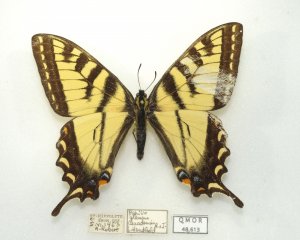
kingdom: Animalia
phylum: Arthropoda
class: Insecta
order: Lepidoptera
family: Papilionidae
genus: Pterourus
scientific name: Pterourus canadensis
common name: Canadian Tiger Swallowtail
